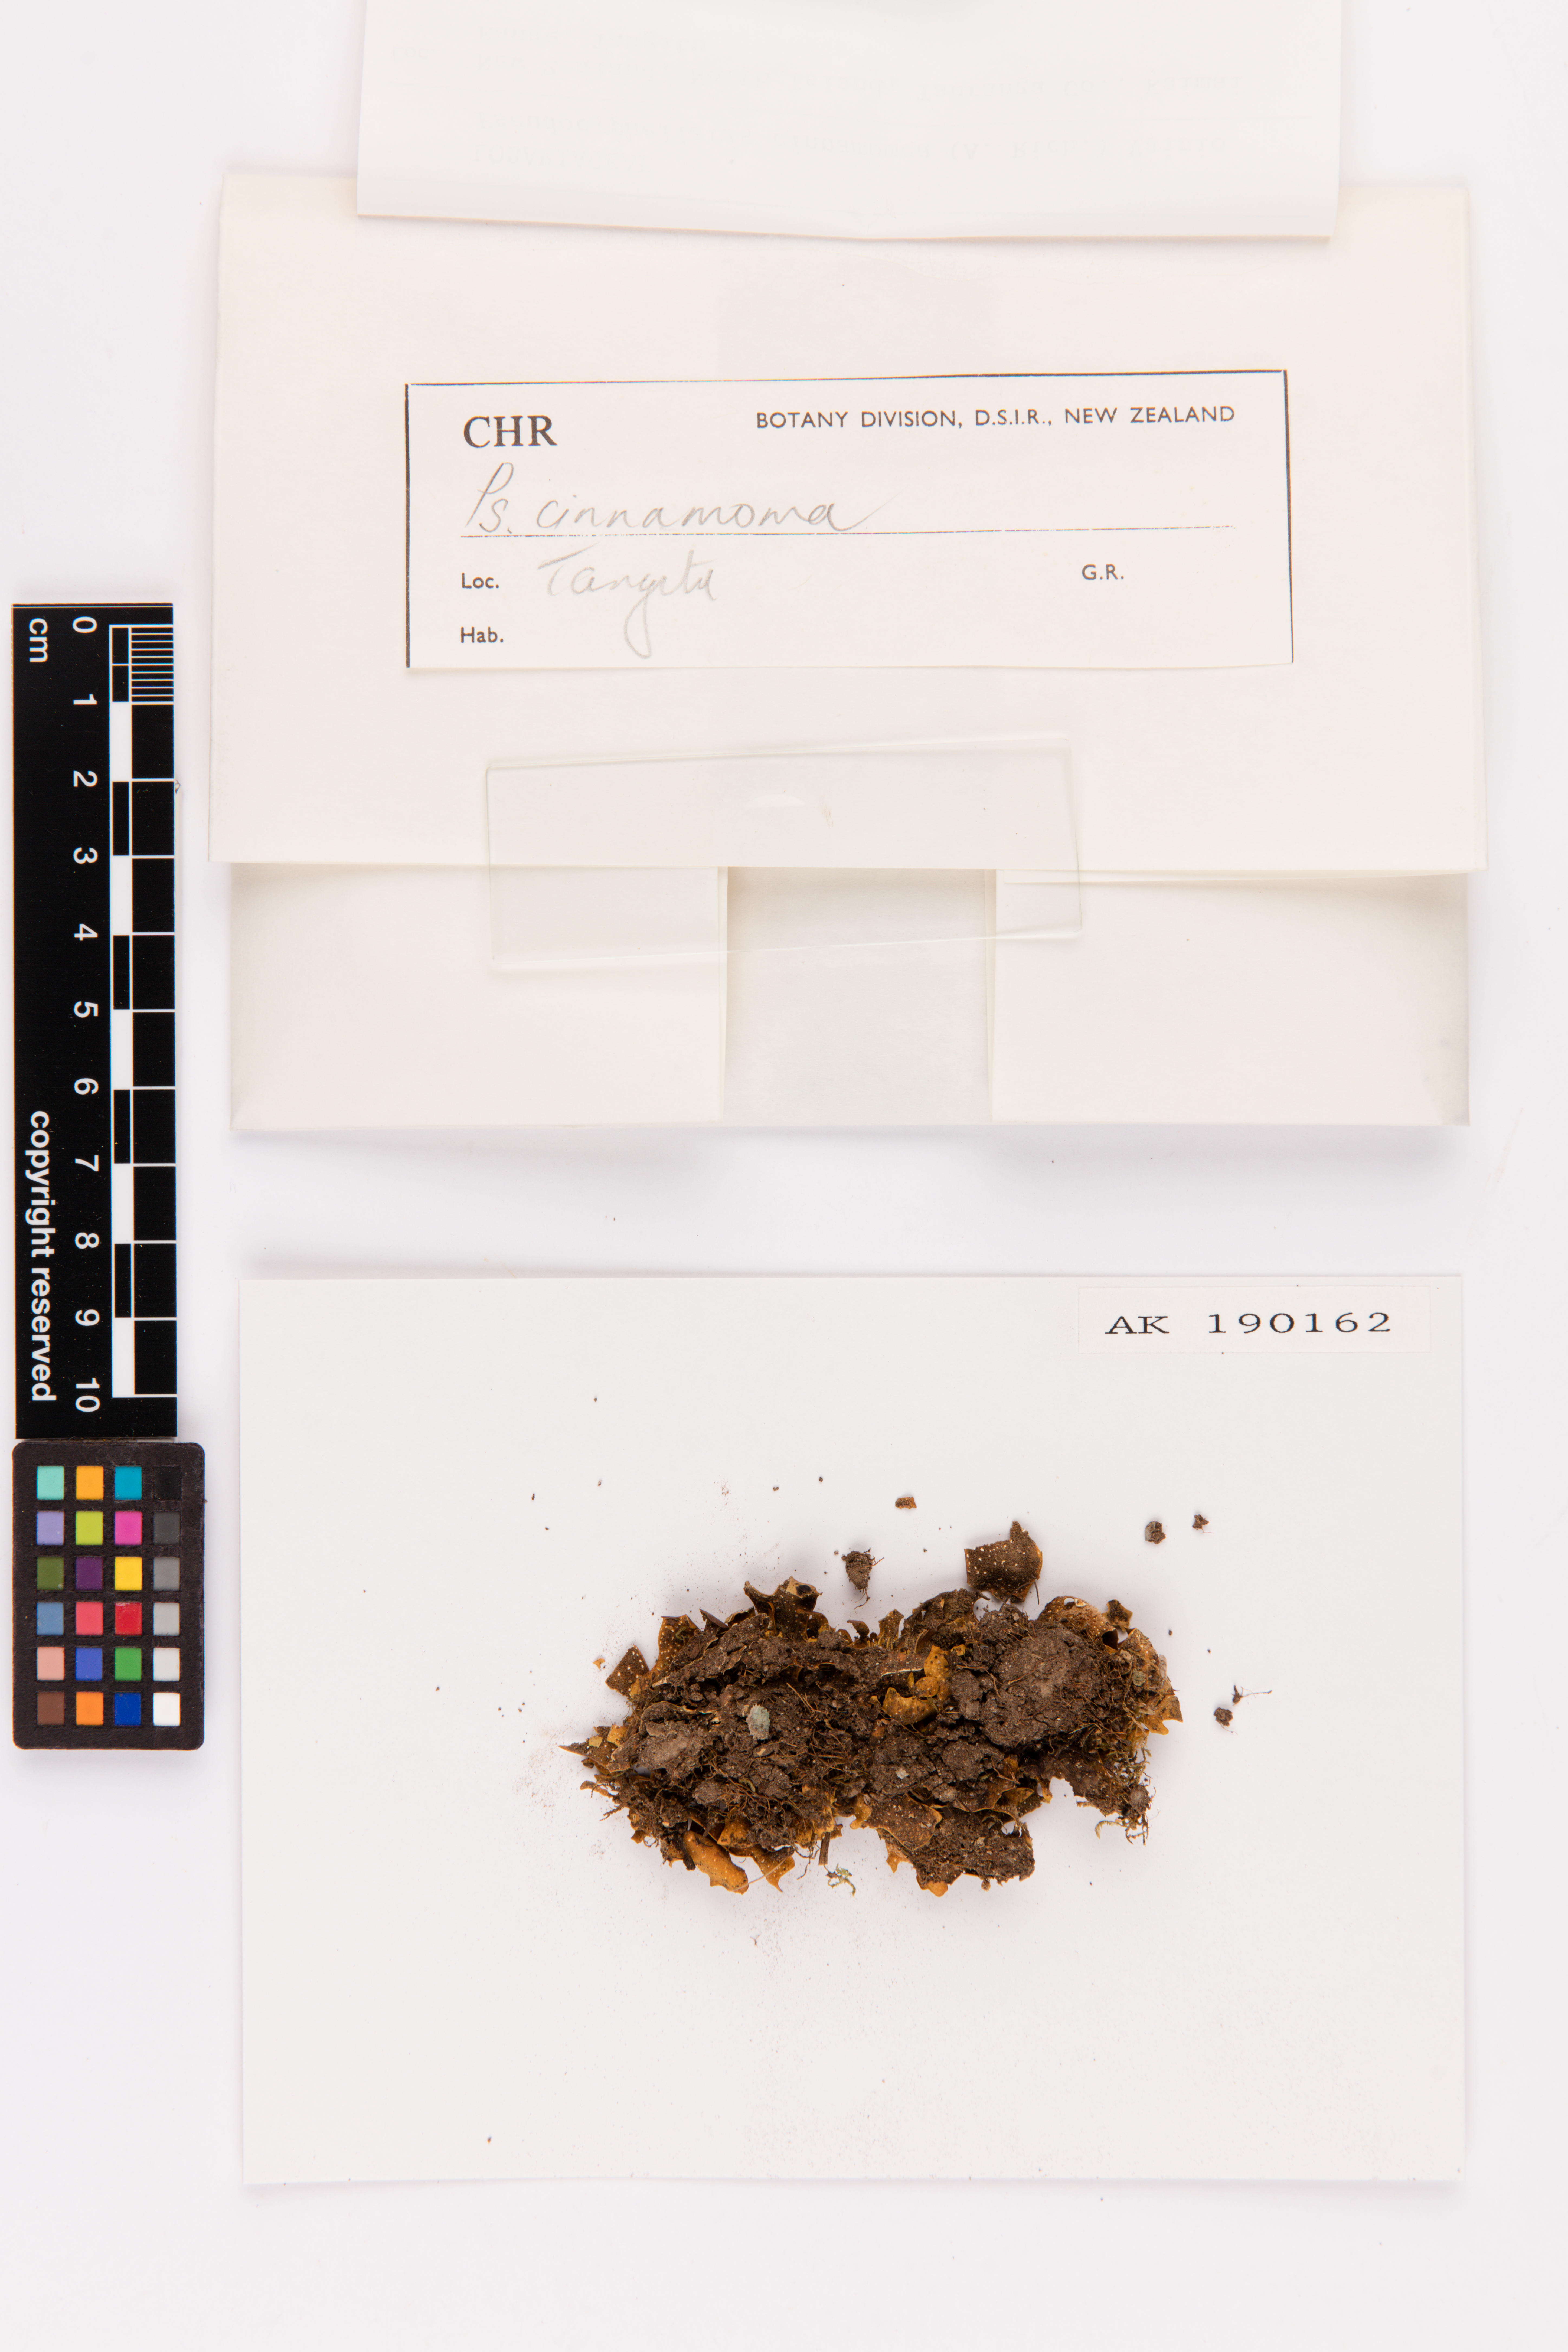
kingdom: Fungi
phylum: Ascomycota
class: Lecanoromycetes
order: Peltigerales
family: Lobariaceae
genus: Pseudocyphellaria
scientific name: Pseudocyphellaria cinnamomea
